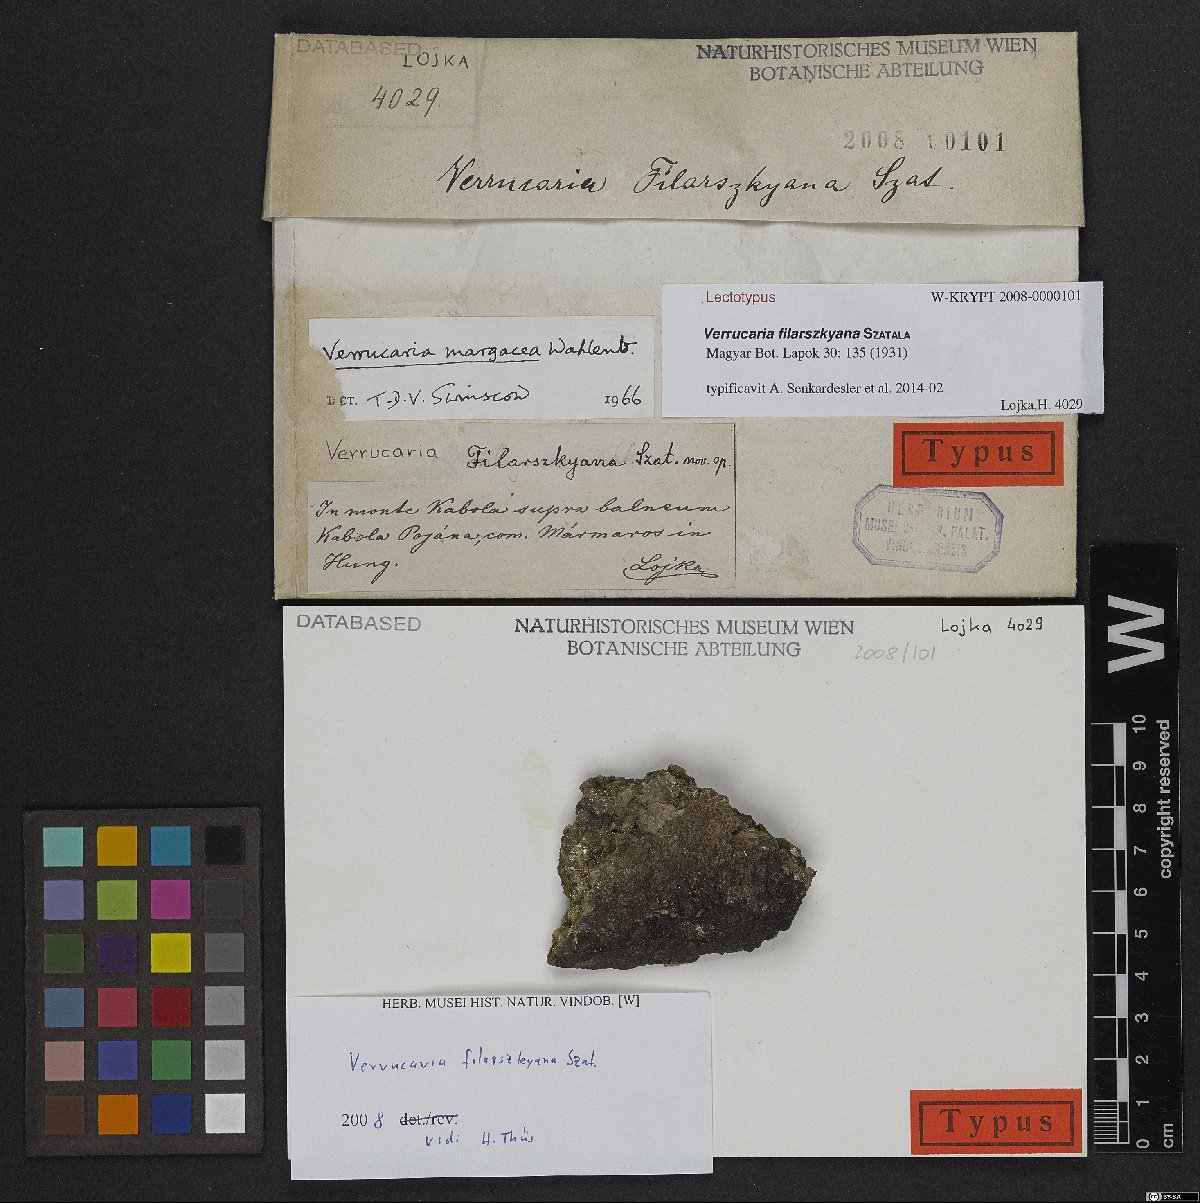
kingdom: Fungi
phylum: Ascomycota
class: Eurotiomycetes
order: Verrucariales
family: Verrucariaceae
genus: Verrucaria
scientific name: Verrucaria margacea
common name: Inundated speck lichen
